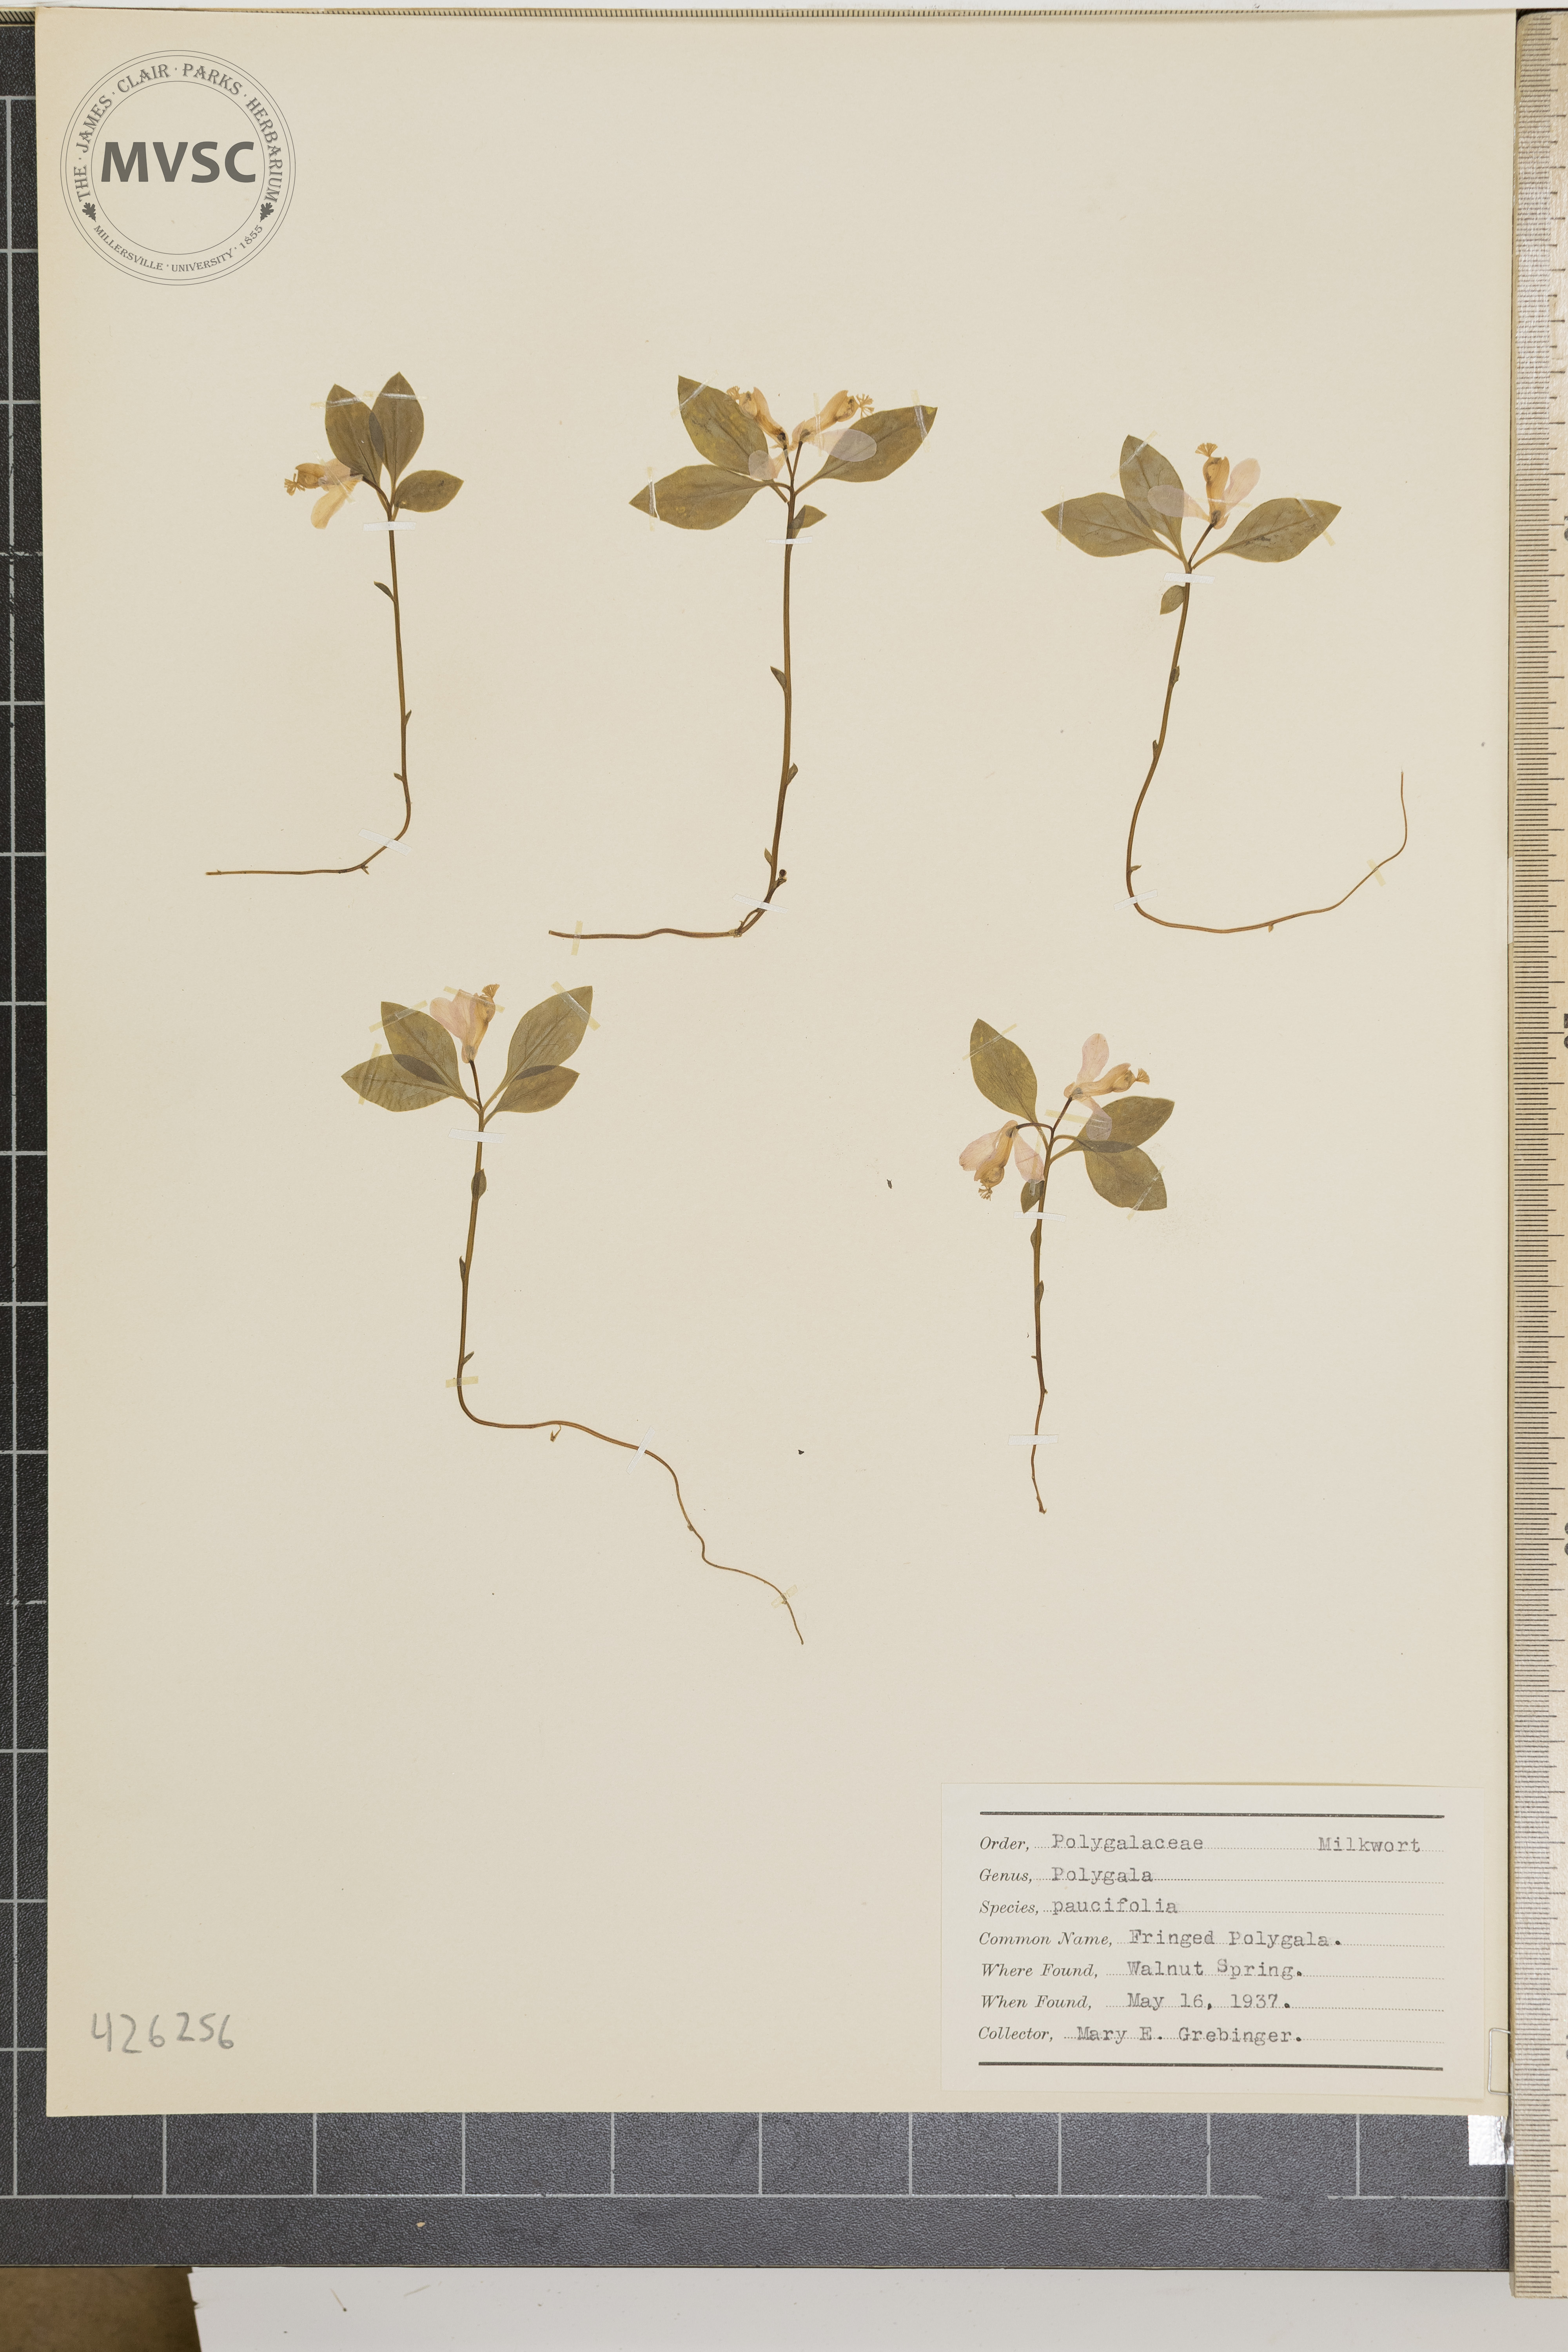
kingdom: Plantae
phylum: Tracheophyta
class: Magnoliopsida
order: Fabales
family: Polygalaceae
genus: Polygaloides
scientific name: Polygaloides paucifolia
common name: Fringed polygala
